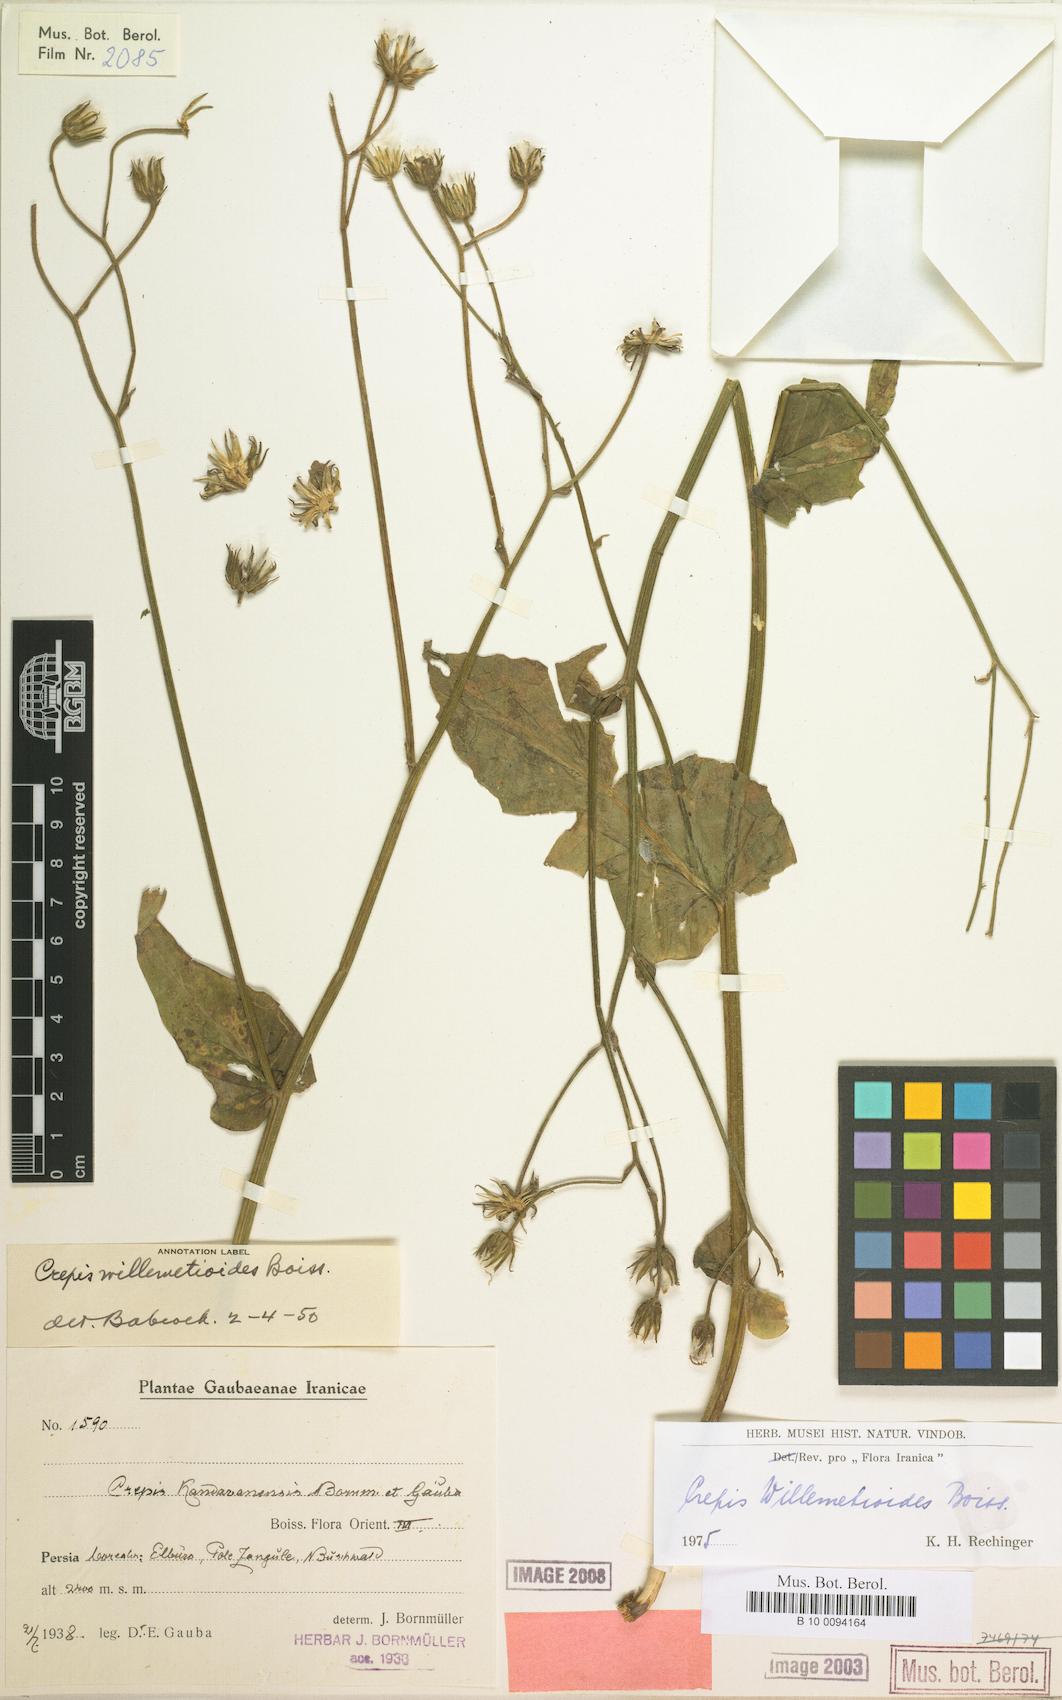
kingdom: Plantae
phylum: Tracheophyta
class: Magnoliopsida
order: Asterales
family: Asteraceae
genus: Crepis
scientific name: Crepis willemetioides
